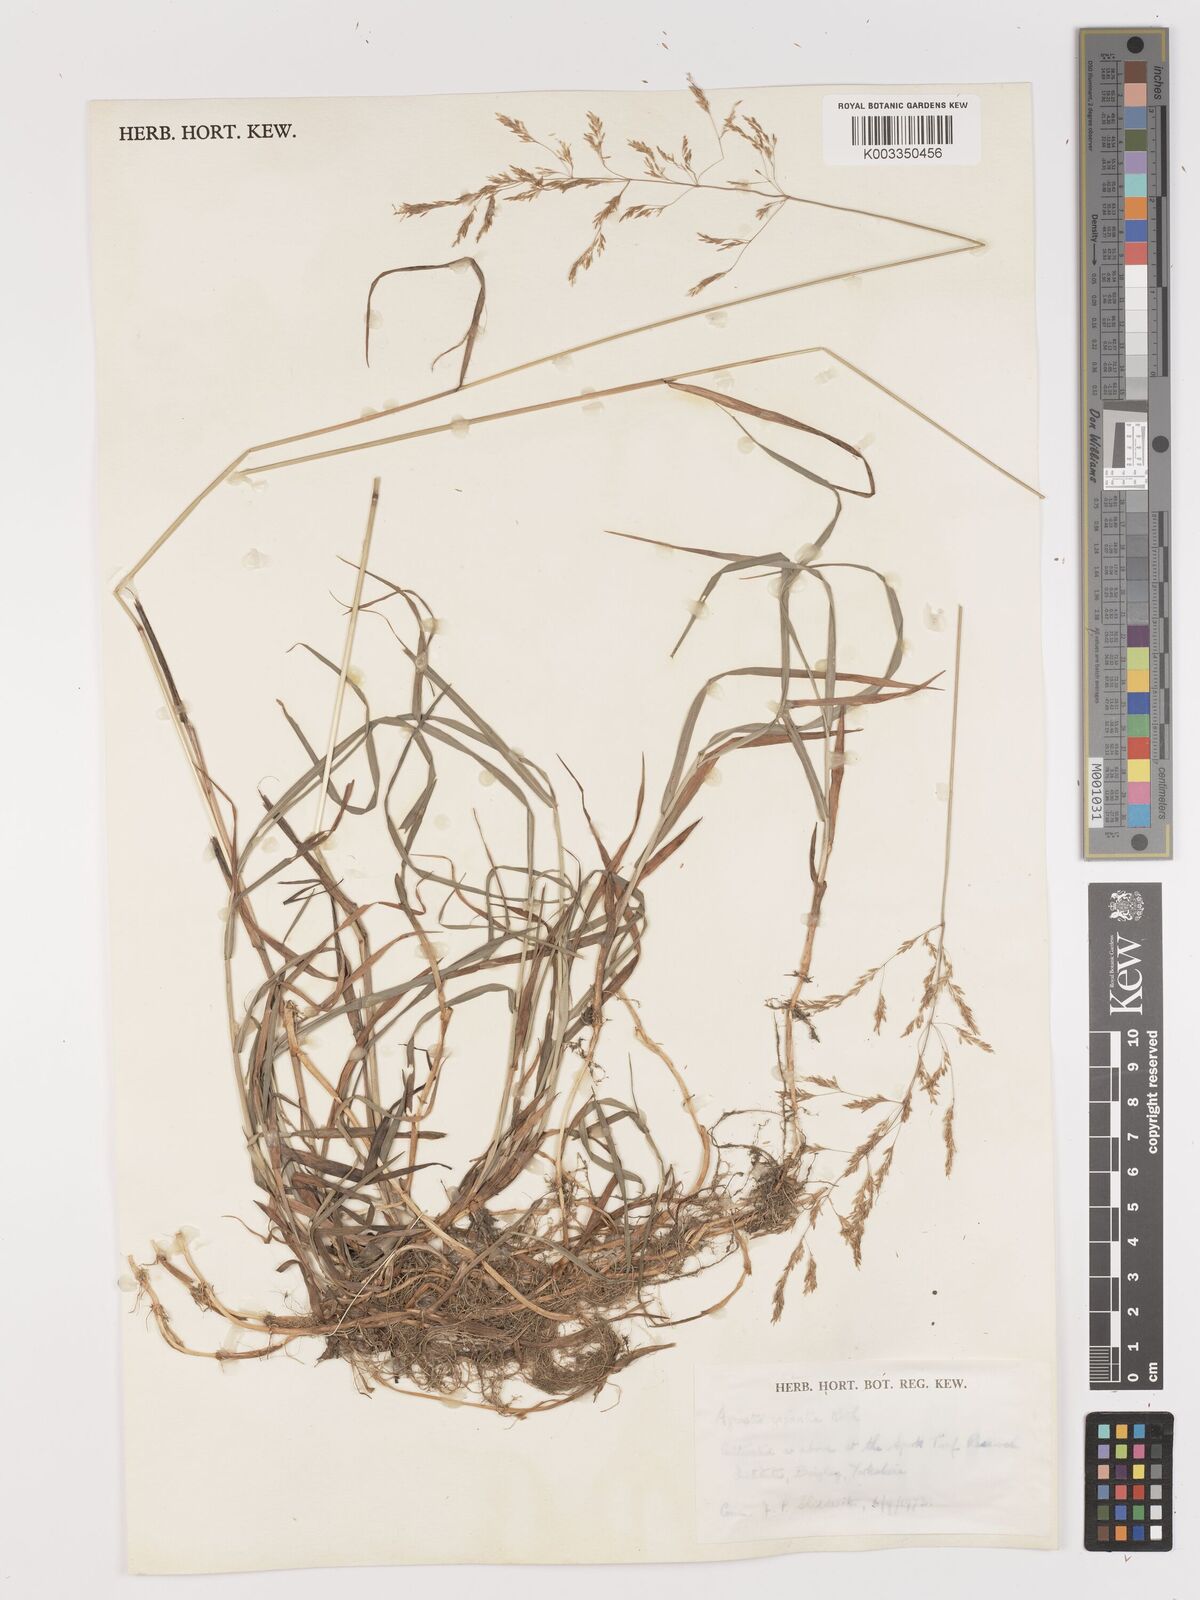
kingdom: Plantae
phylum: Tracheophyta
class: Liliopsida
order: Poales
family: Poaceae
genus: Agrostis
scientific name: Agrostis gigantea
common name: Black bent
